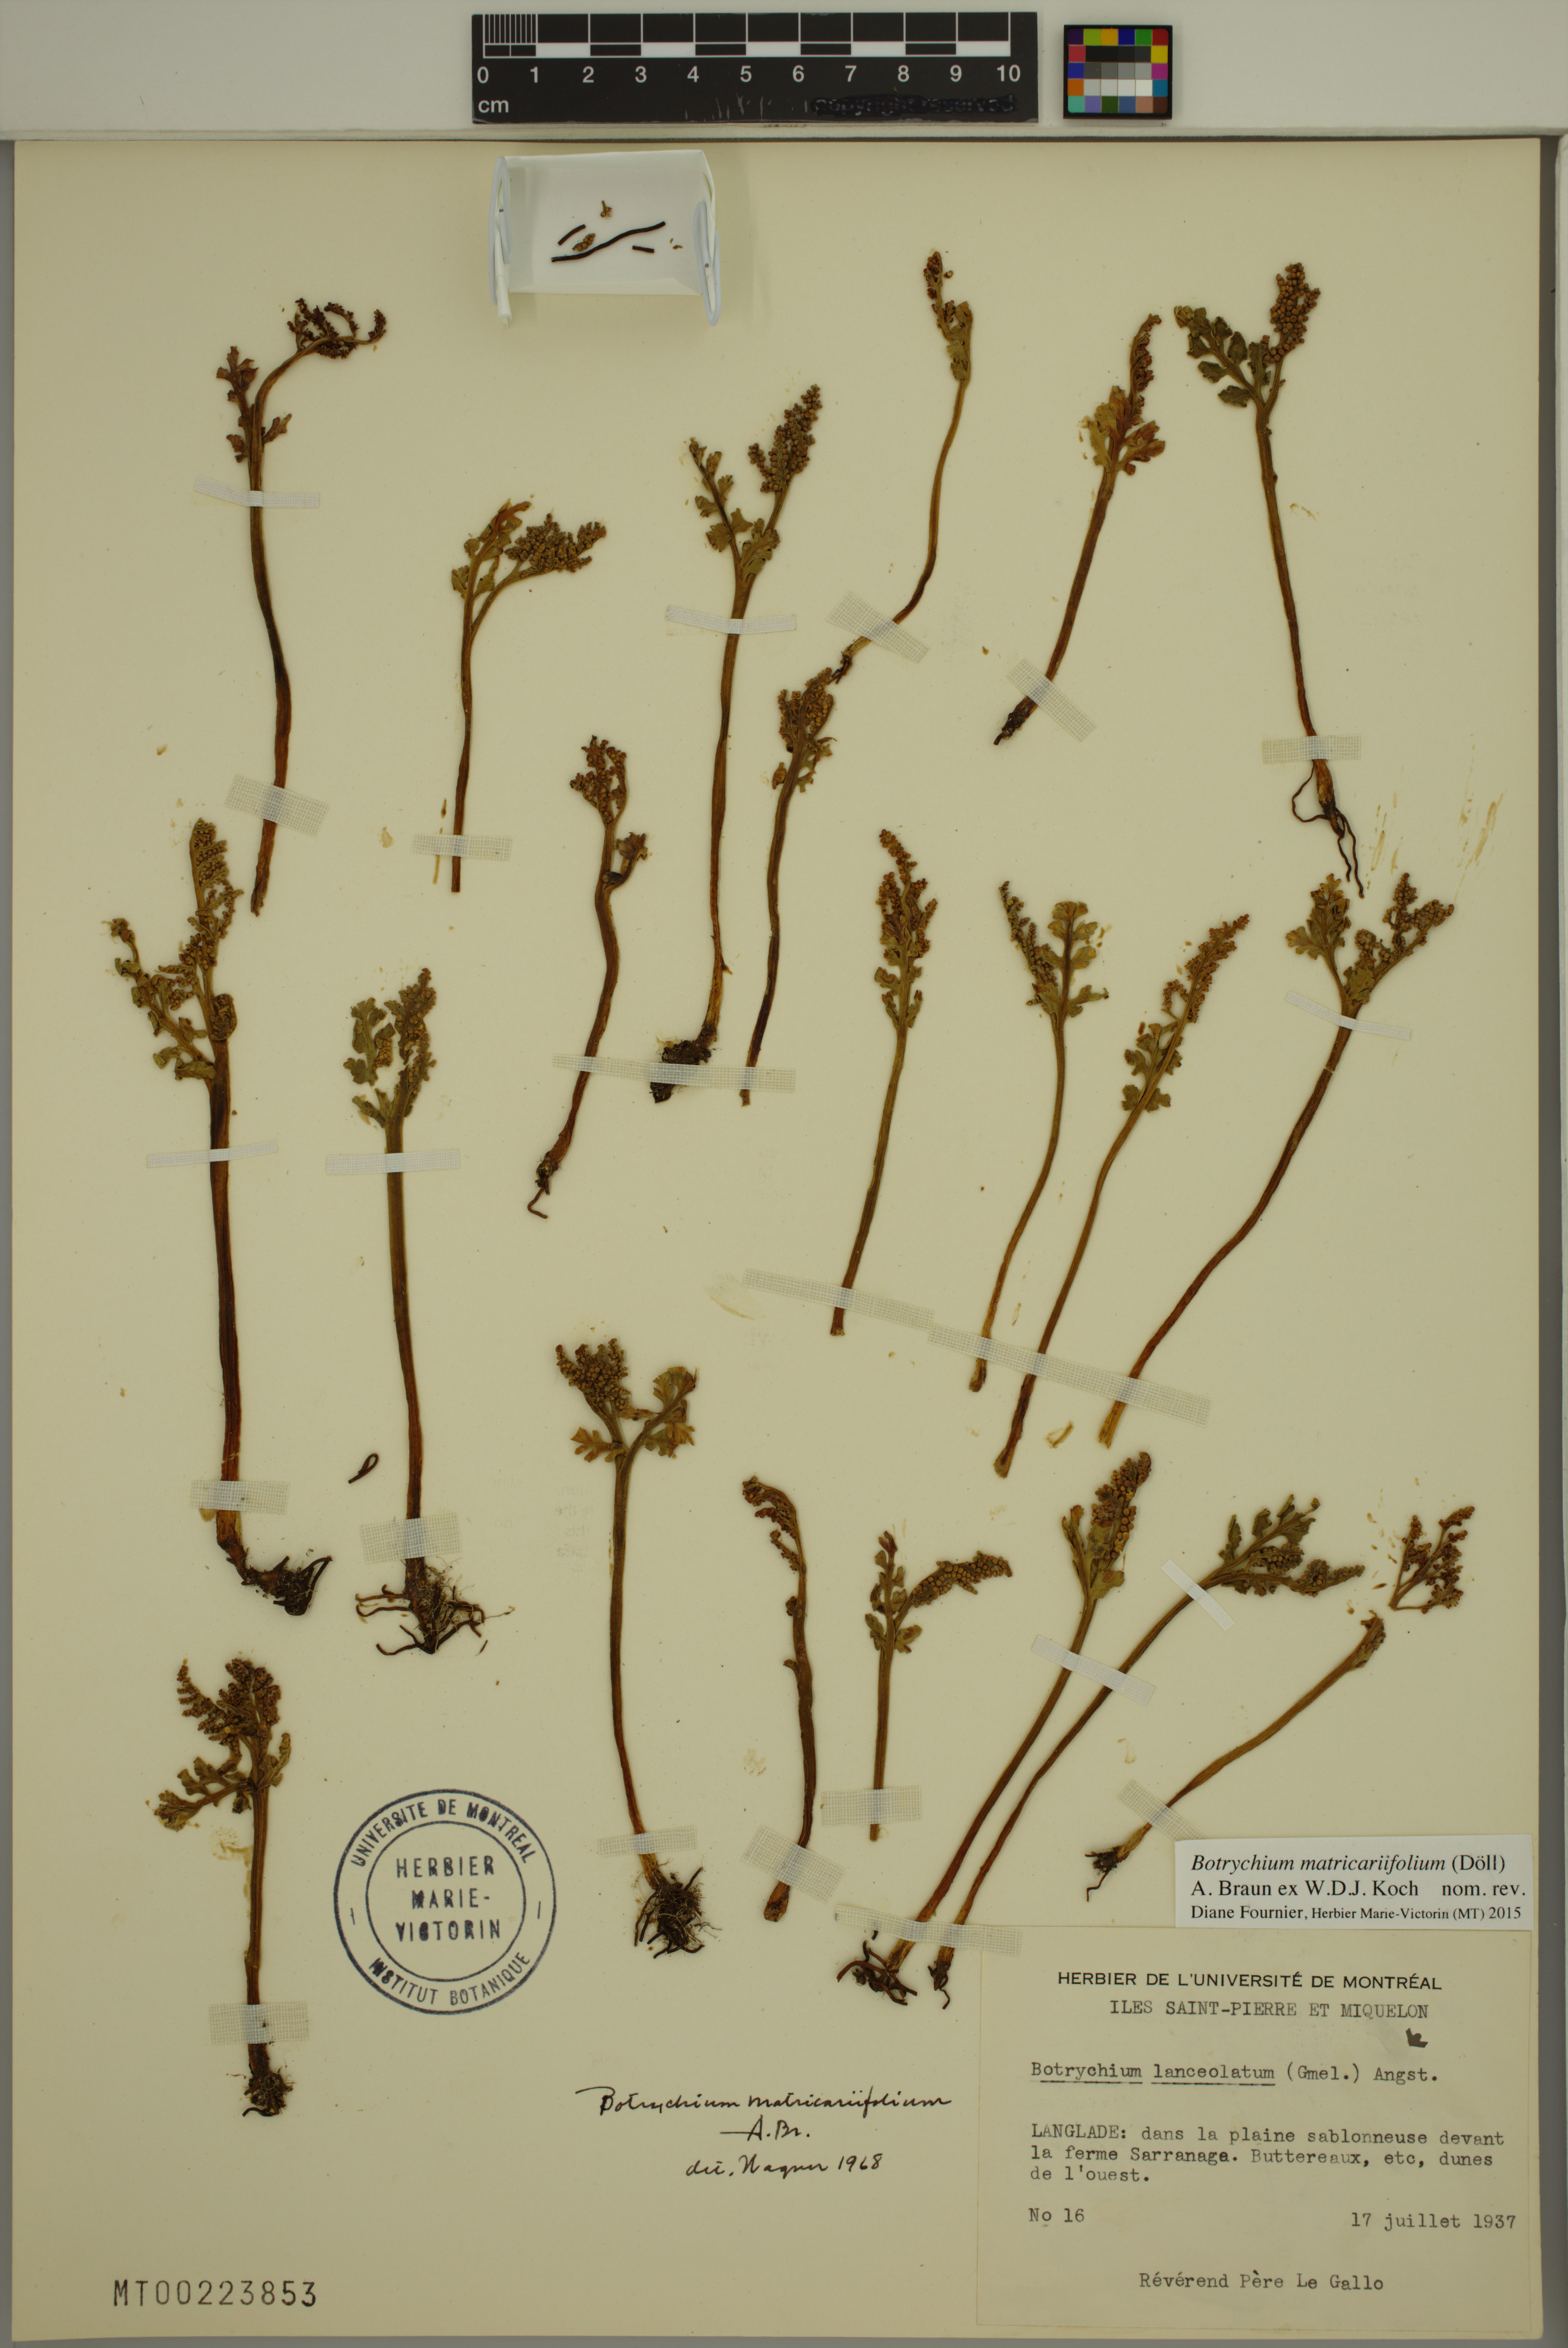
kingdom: Plantae
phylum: Tracheophyta
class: Polypodiopsida
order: Ophioglossales
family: Ophioglossaceae
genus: Botrychium
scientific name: Botrychium matricariifolium
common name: Branched moonwort
